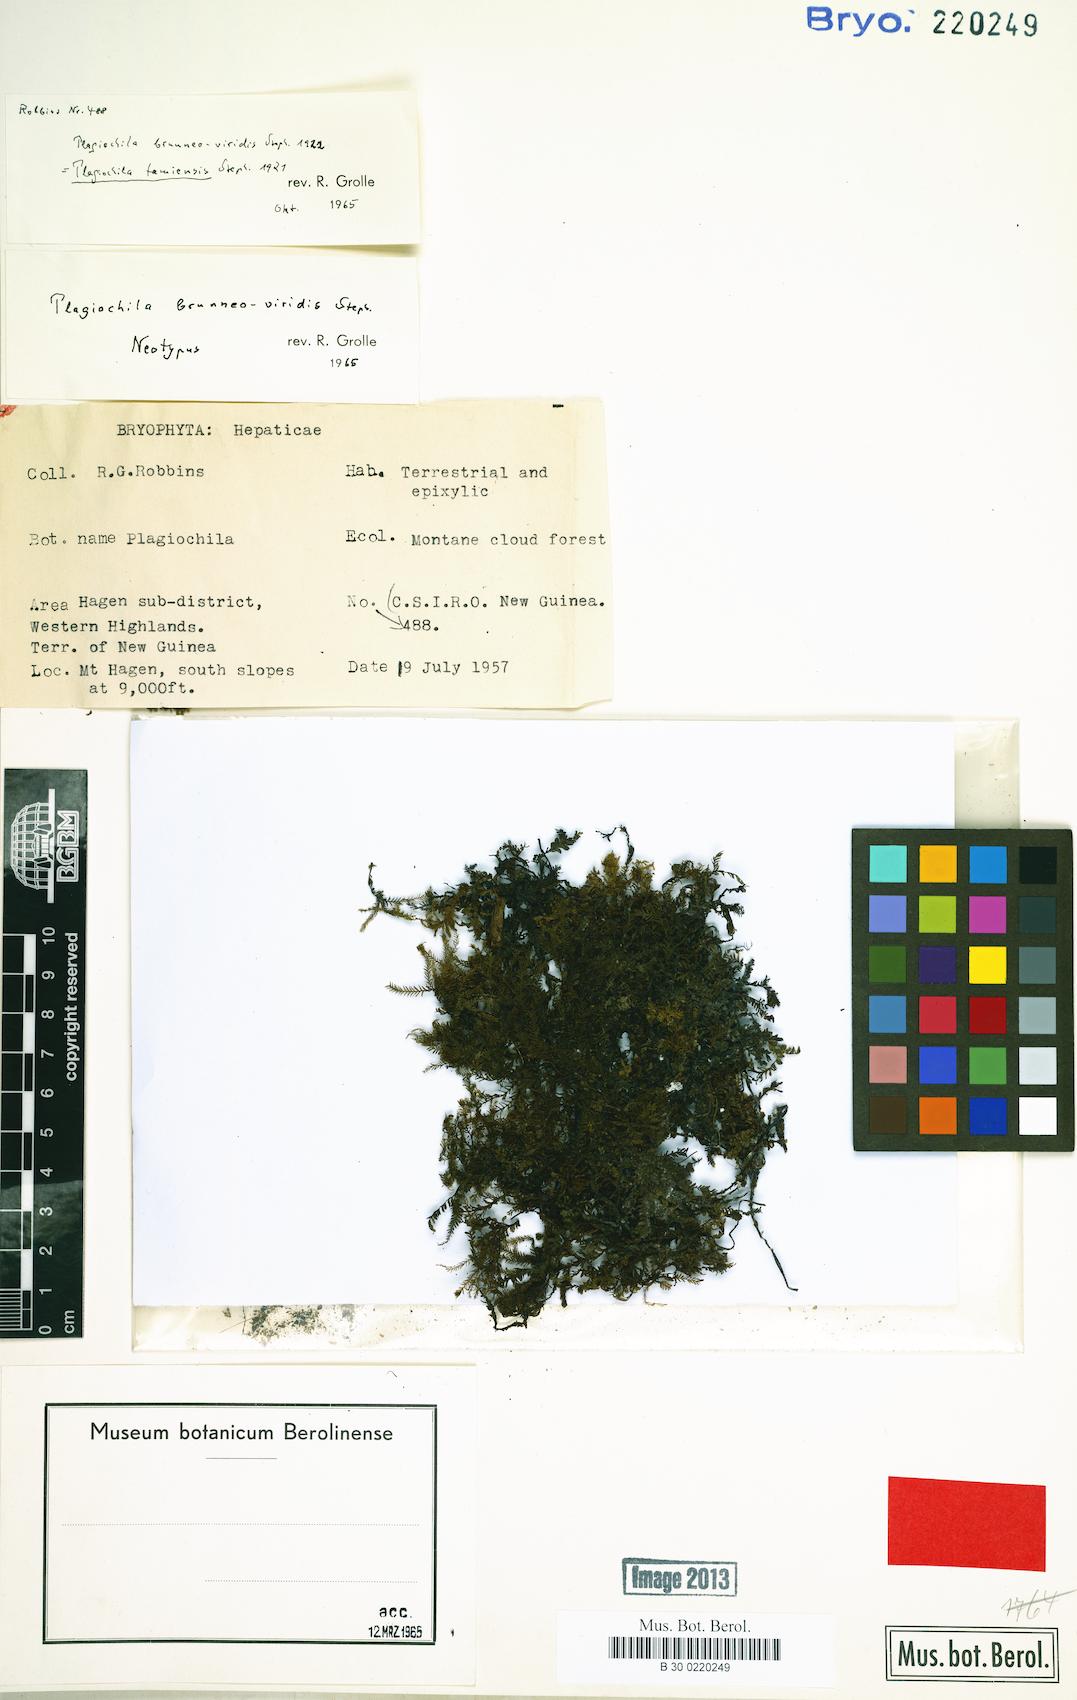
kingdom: Plantae
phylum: Marchantiophyta
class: Jungermanniopsida
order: Jungermanniales
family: Plagiochilaceae
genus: Plagiochila
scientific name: Plagiochila tamiensis
